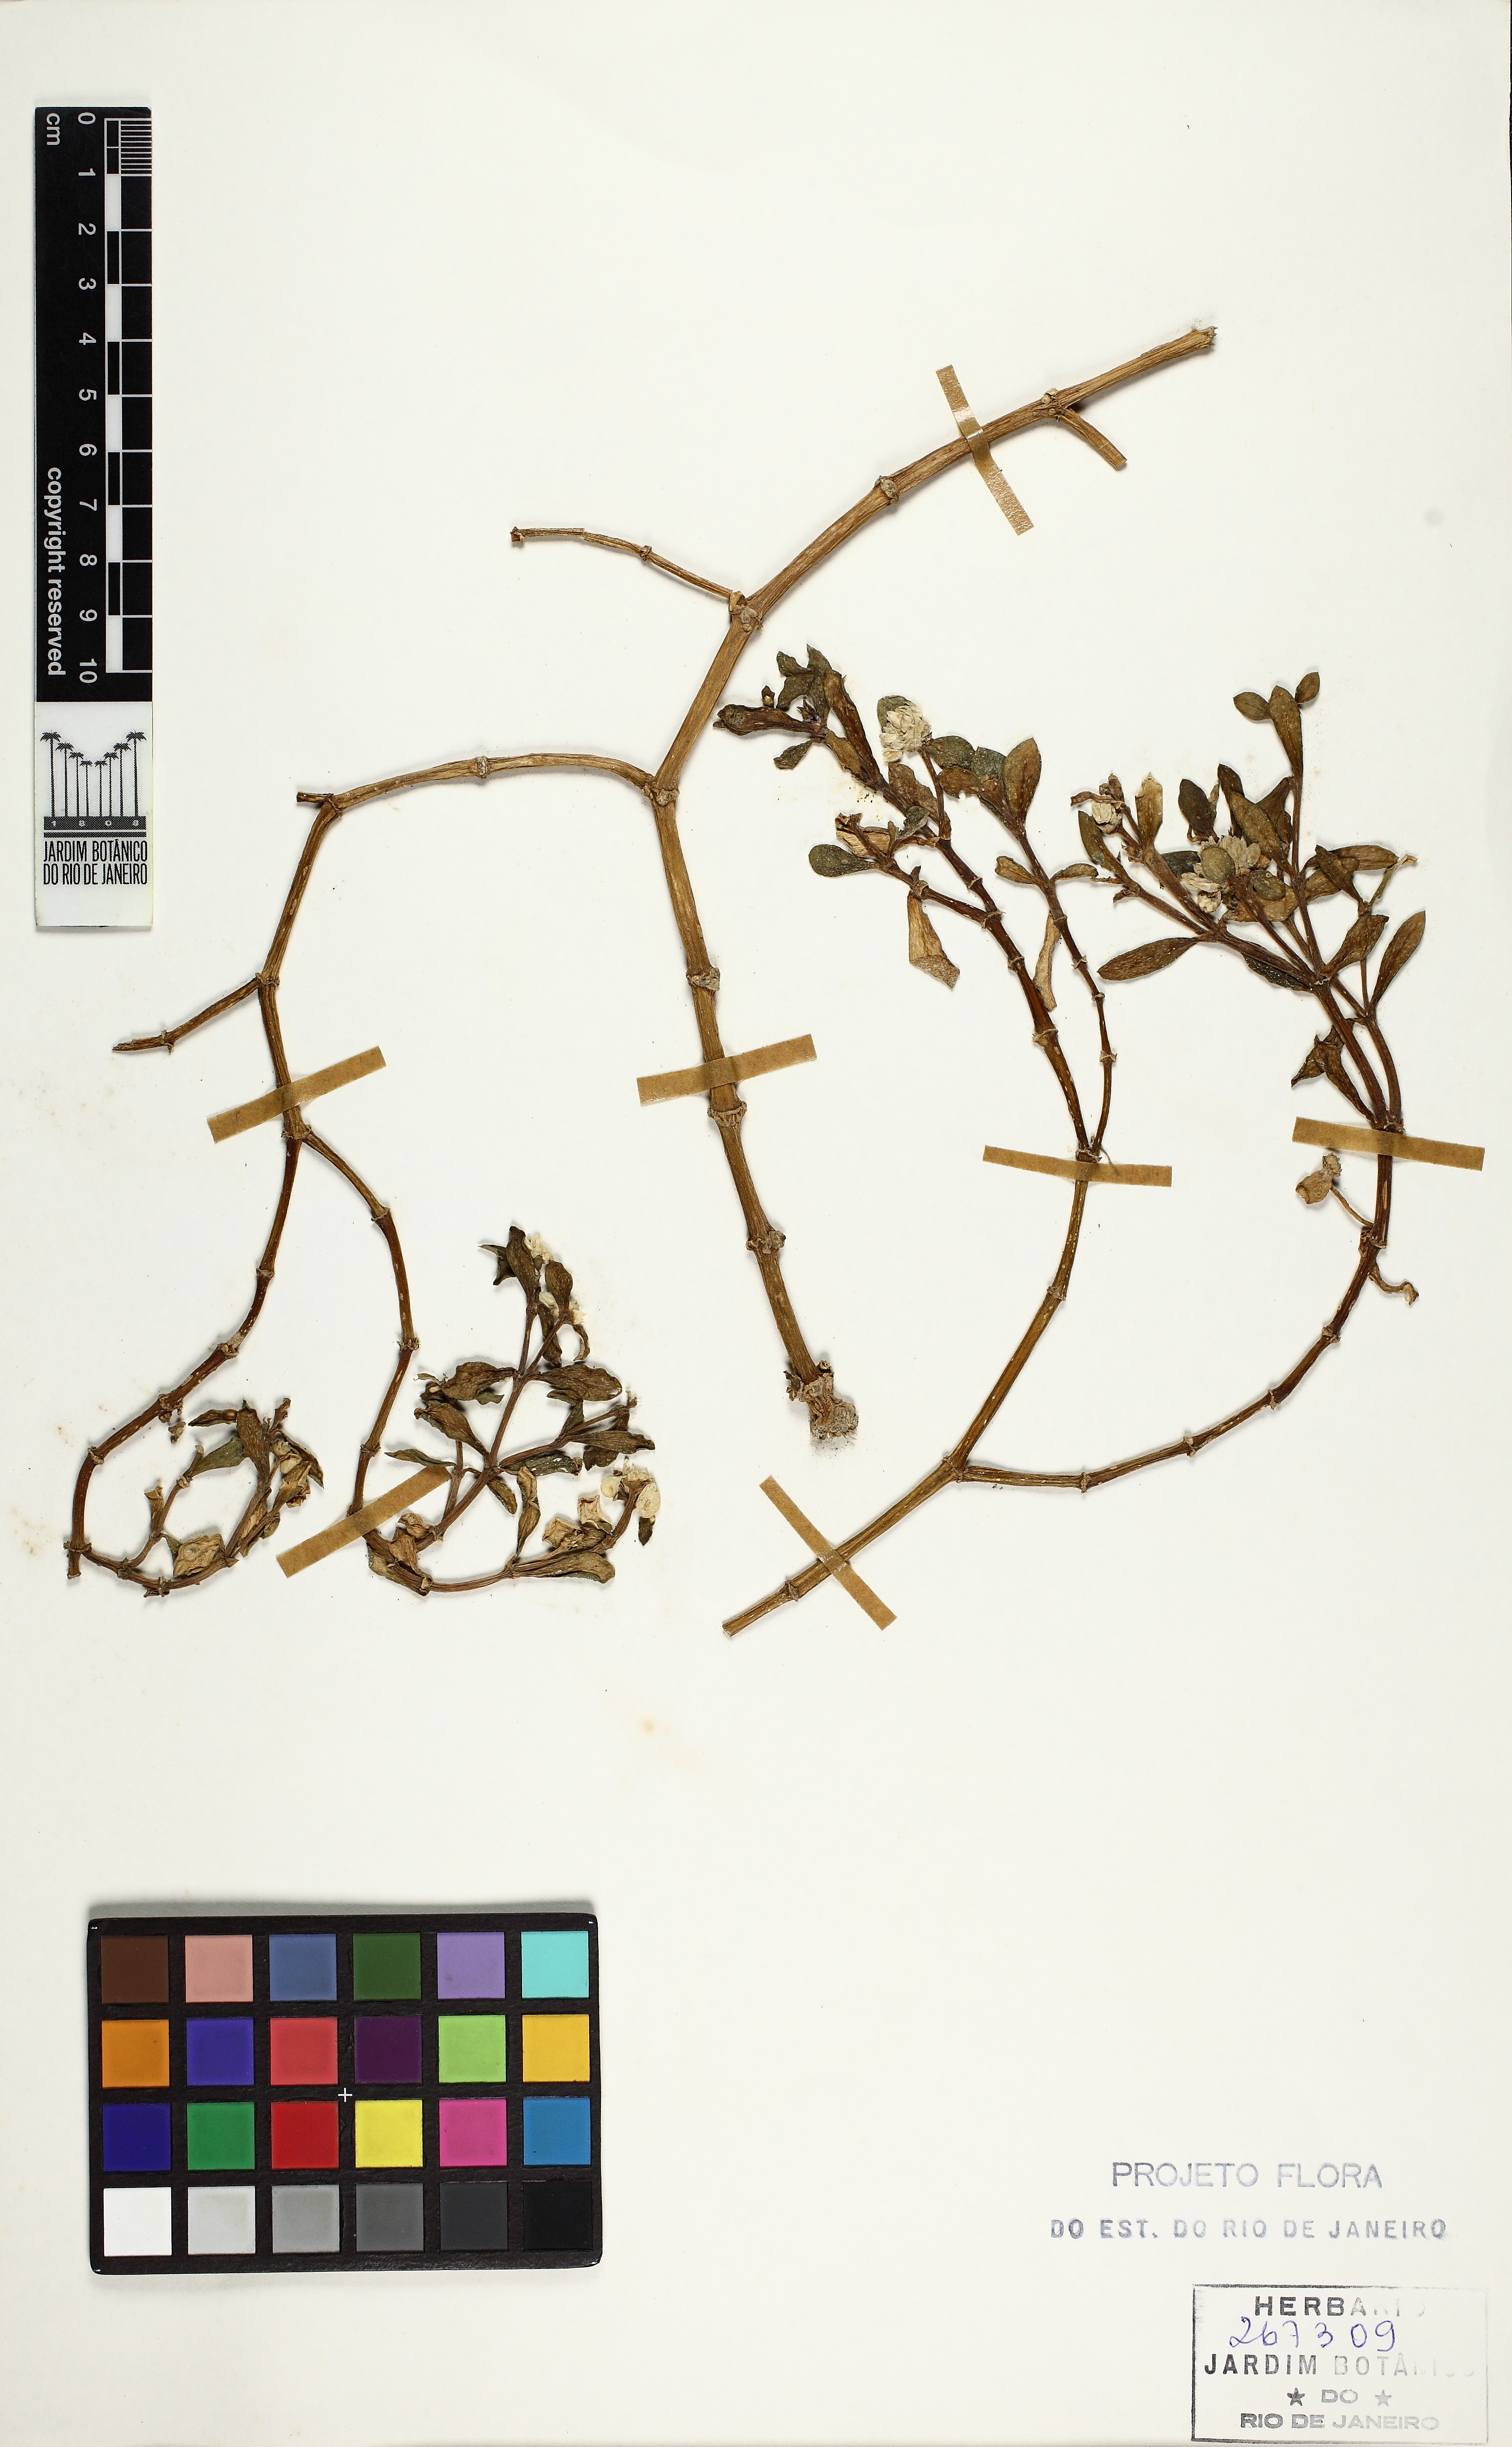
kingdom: Plantae
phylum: Tracheophyta
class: Magnoliopsida
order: Caryophyllales
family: Amaranthaceae
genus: Gomphrena
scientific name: Gomphrena portulacoides
